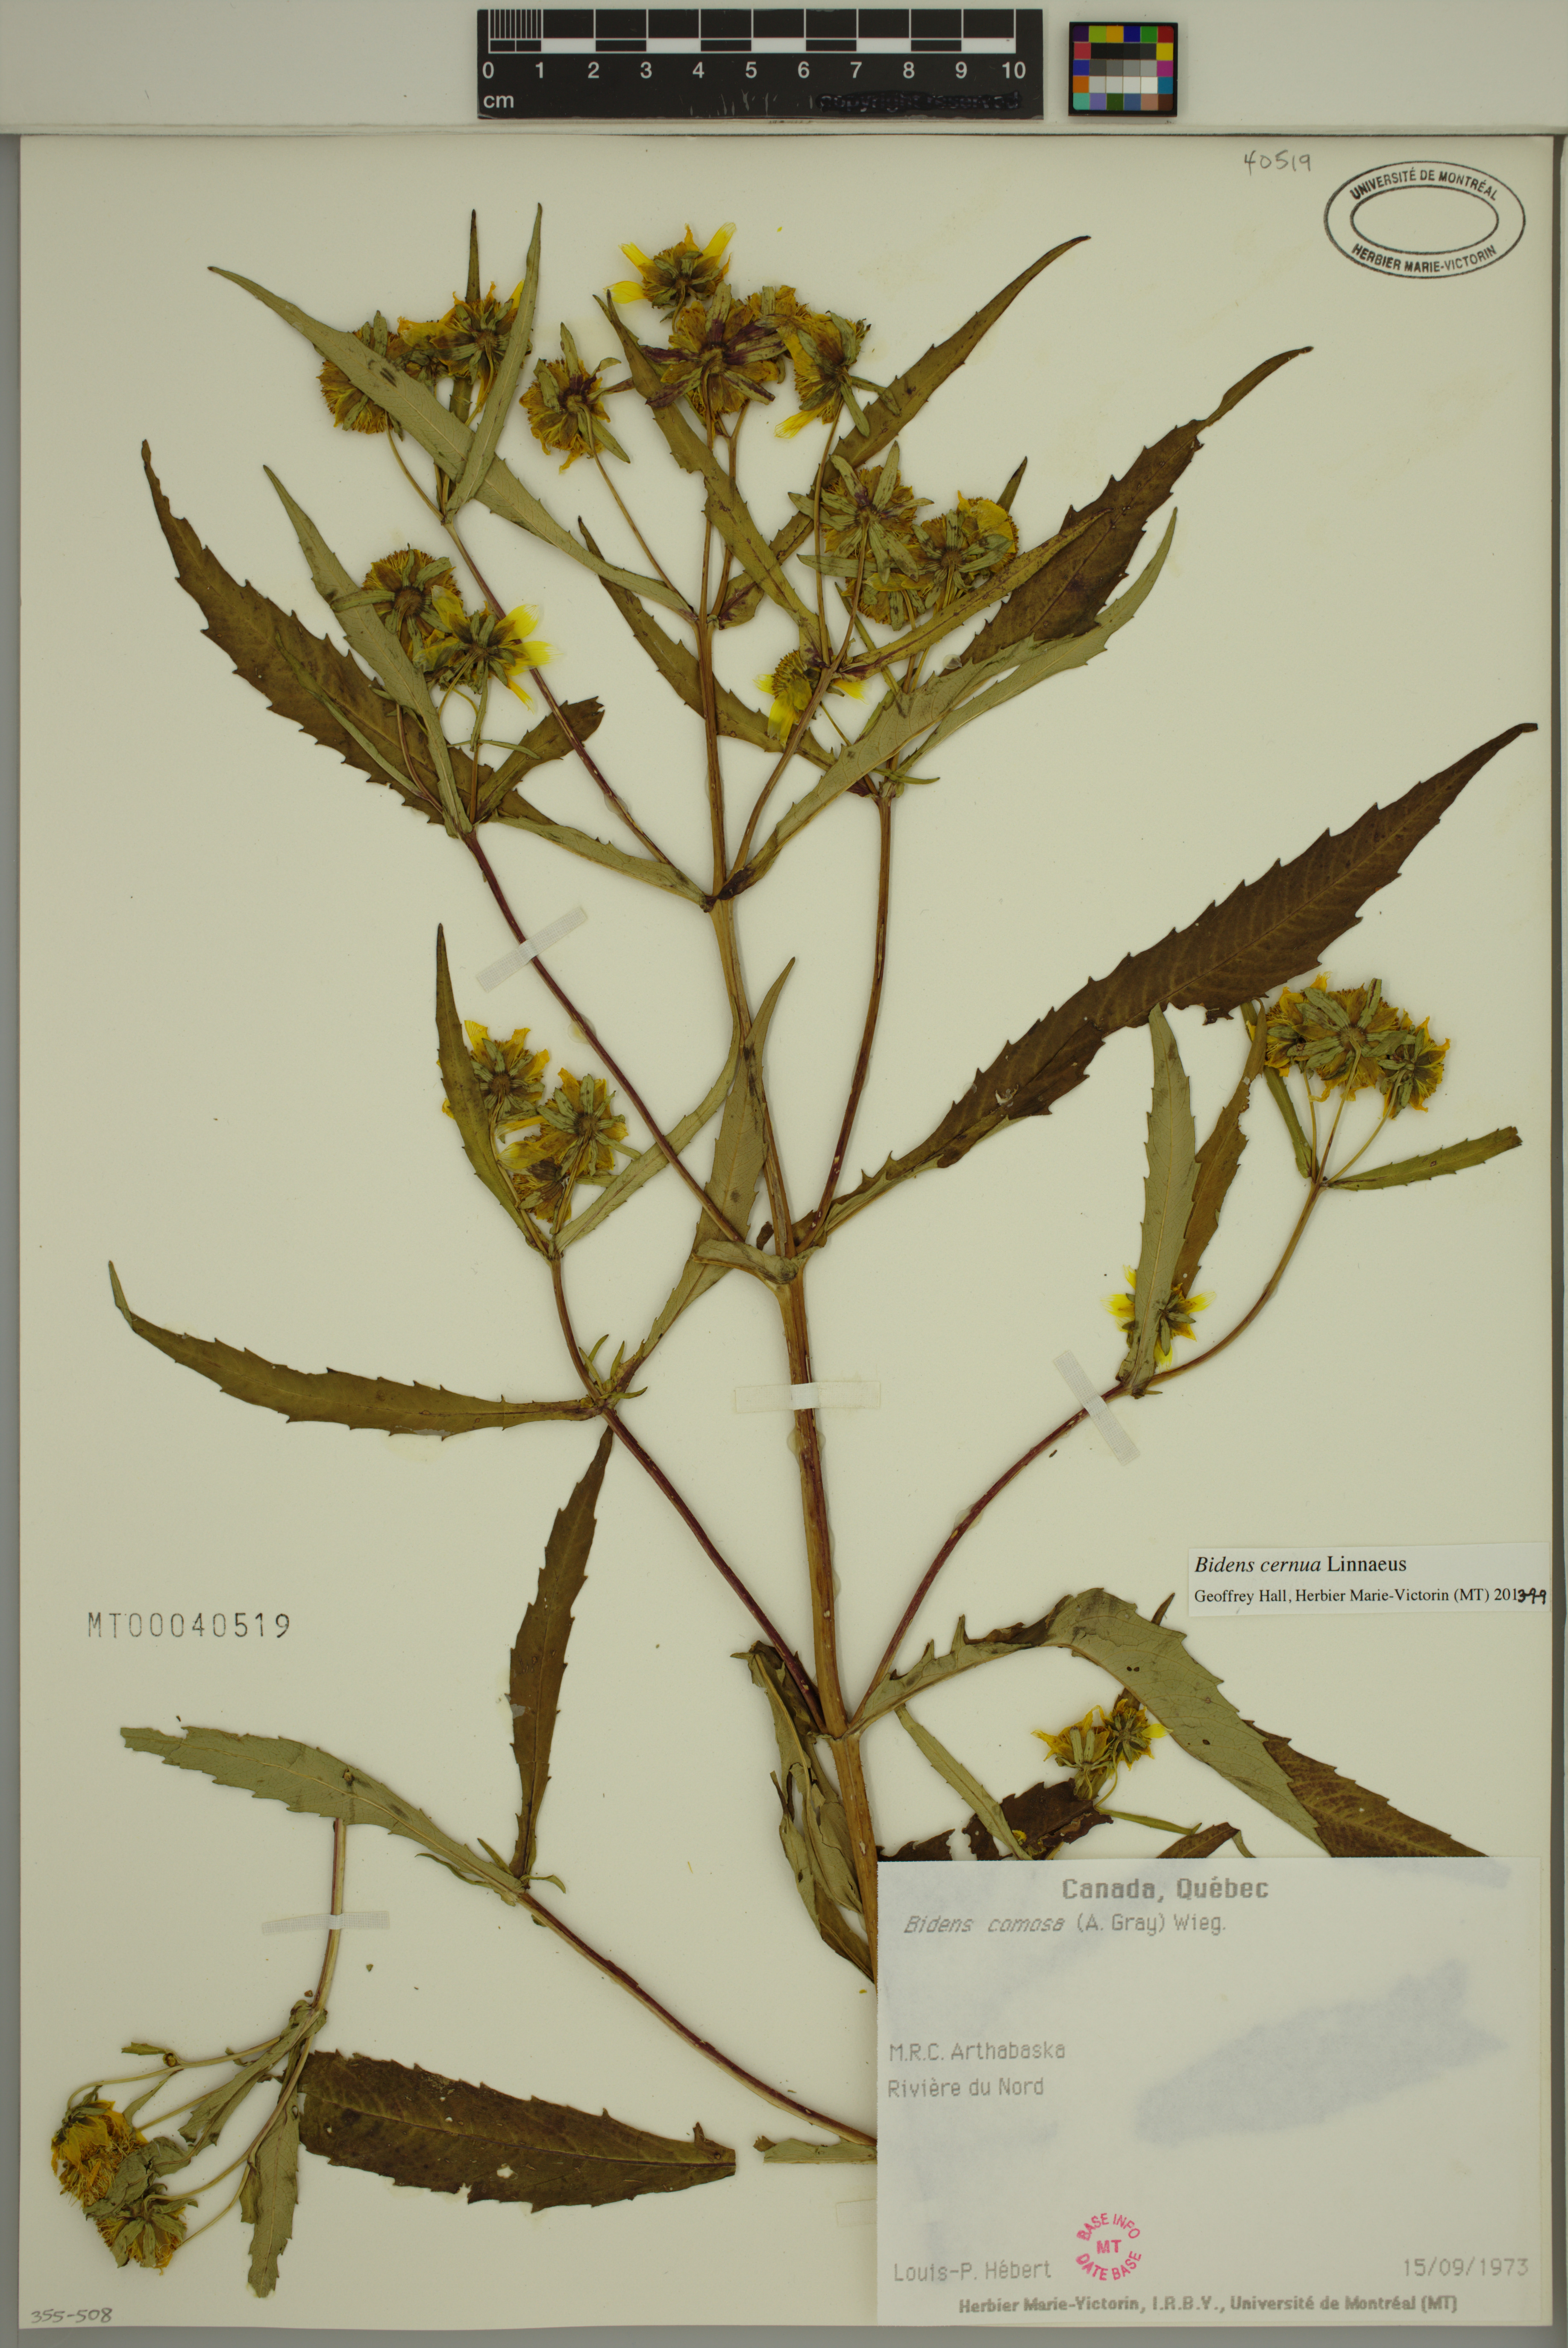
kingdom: Plantae
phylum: Tracheophyta
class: Magnoliopsida
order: Asterales
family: Asteraceae
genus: Bidens
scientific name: Bidens cernua
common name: Nodding bur-marigold
